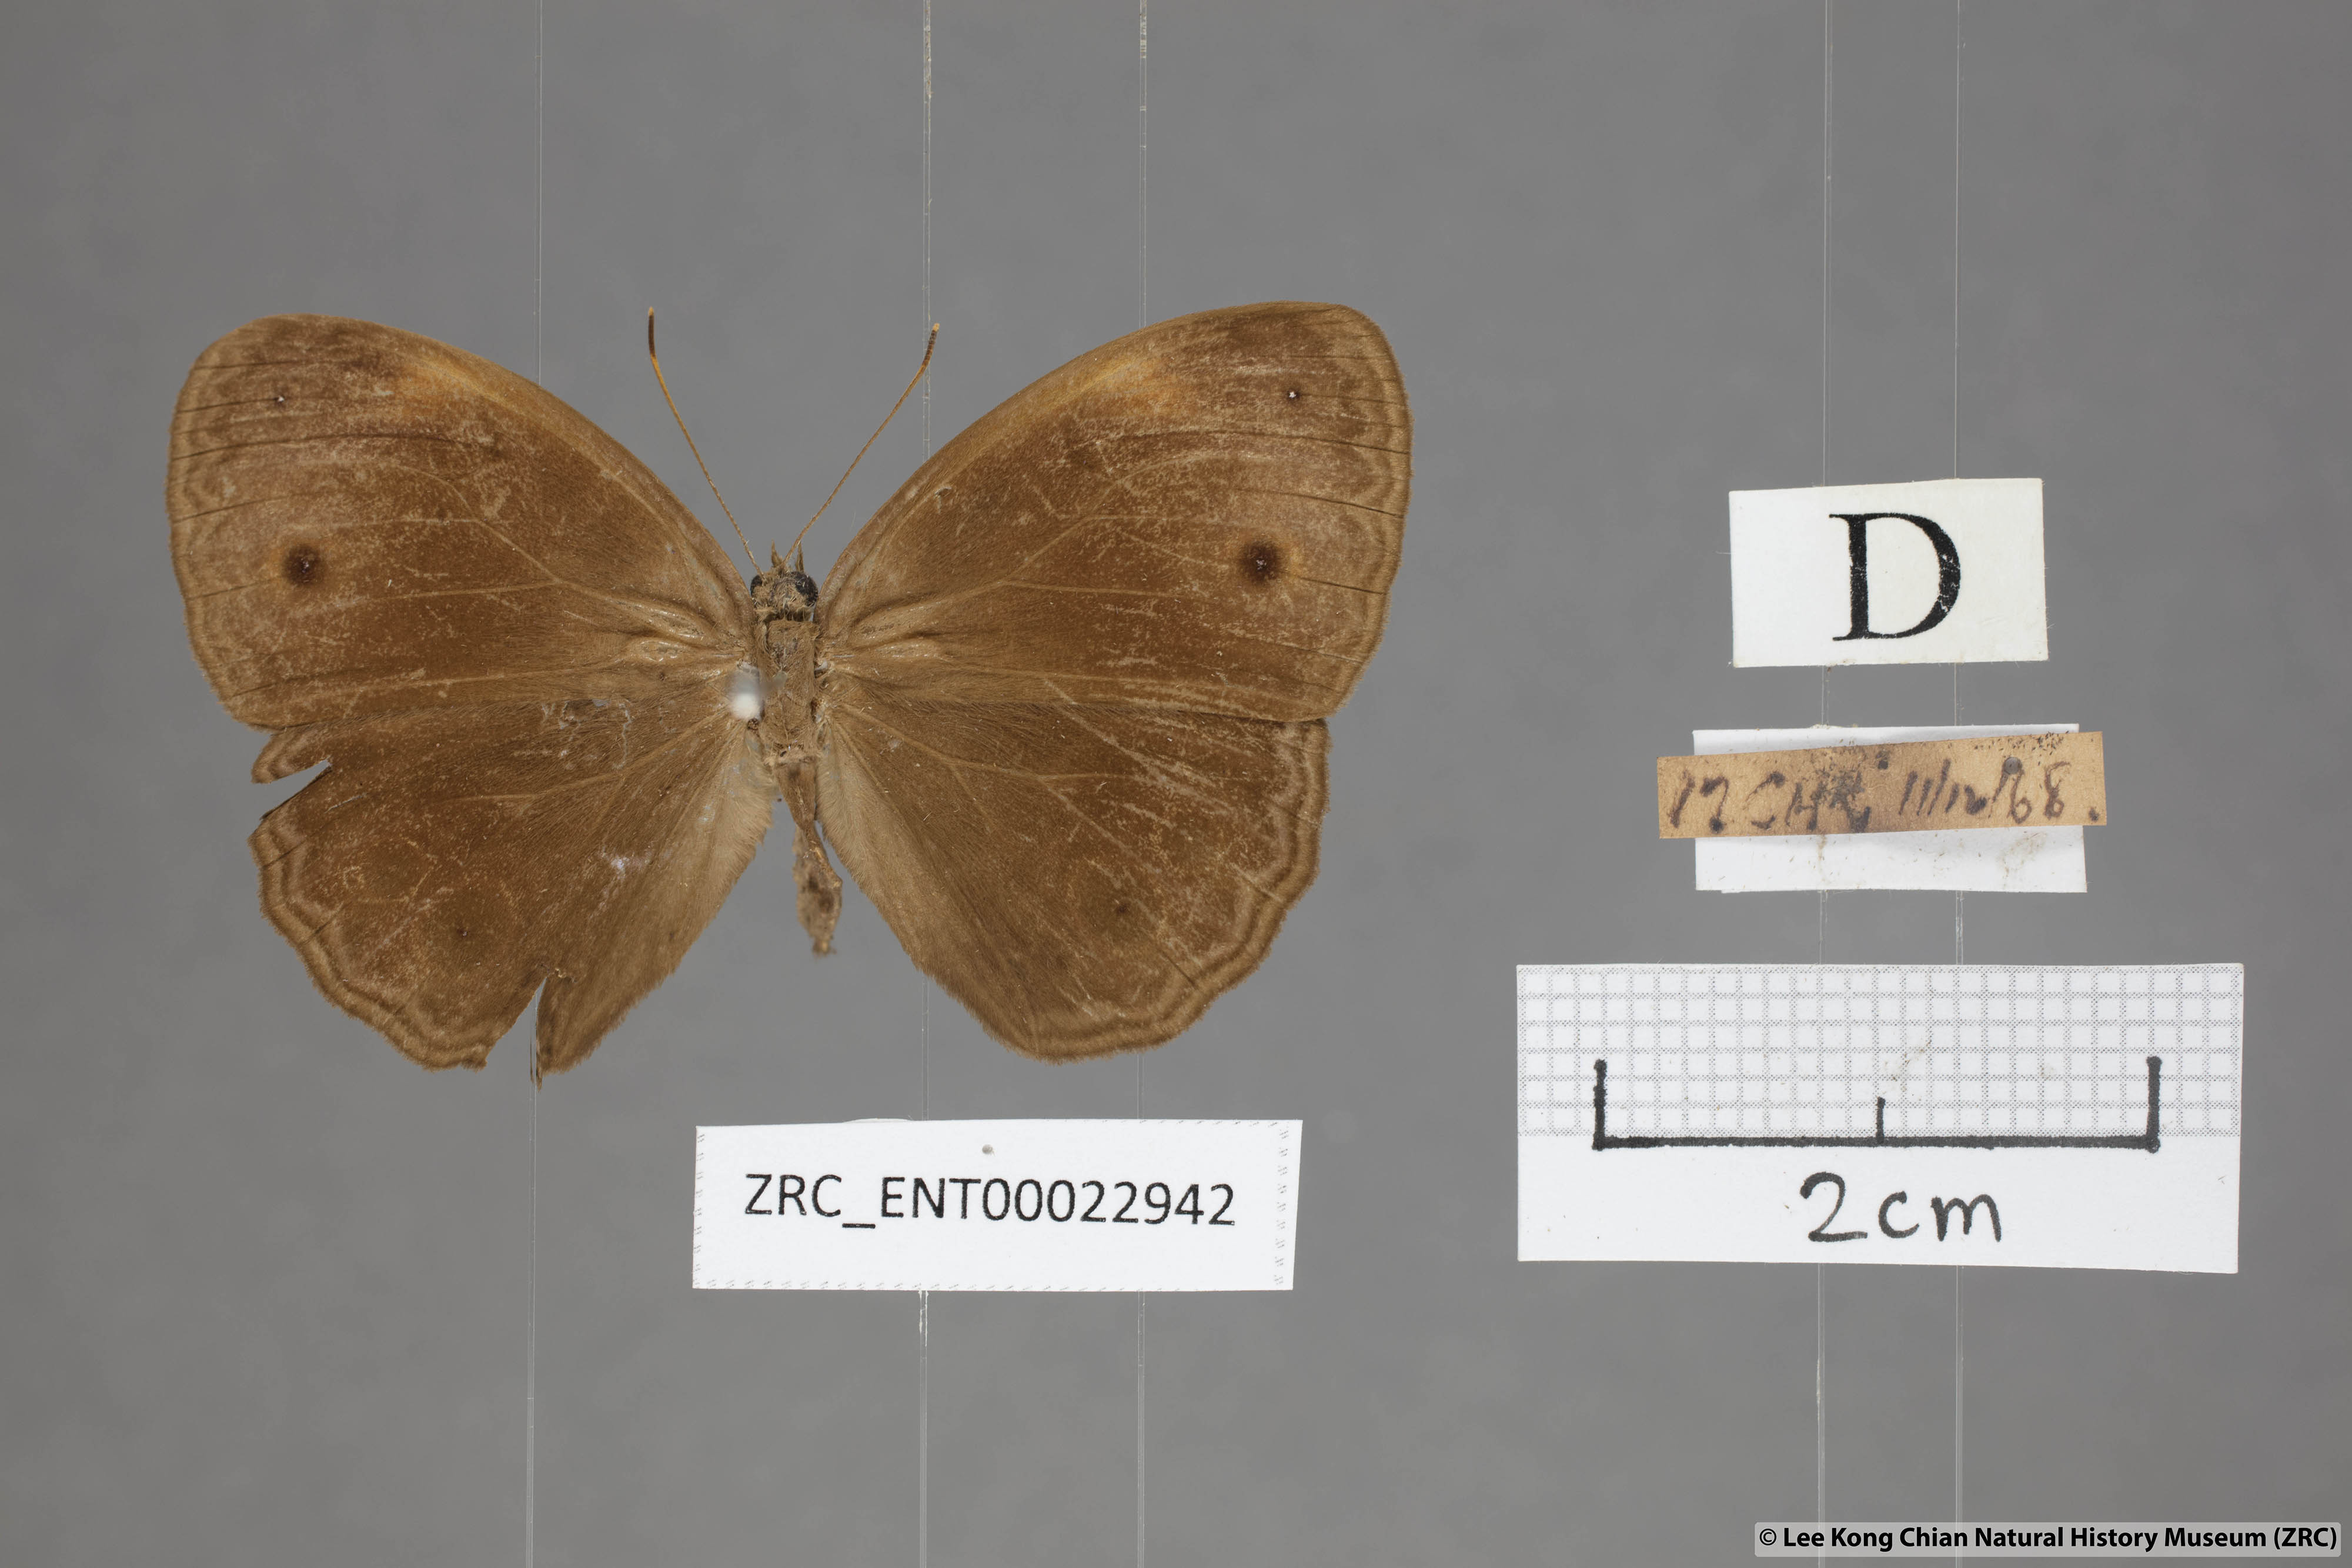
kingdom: Animalia
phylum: Arthropoda
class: Insecta
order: Lepidoptera
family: Nymphalidae
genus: Mycalesis
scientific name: Mycalesis maianeas
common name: Bandless bushbrown
